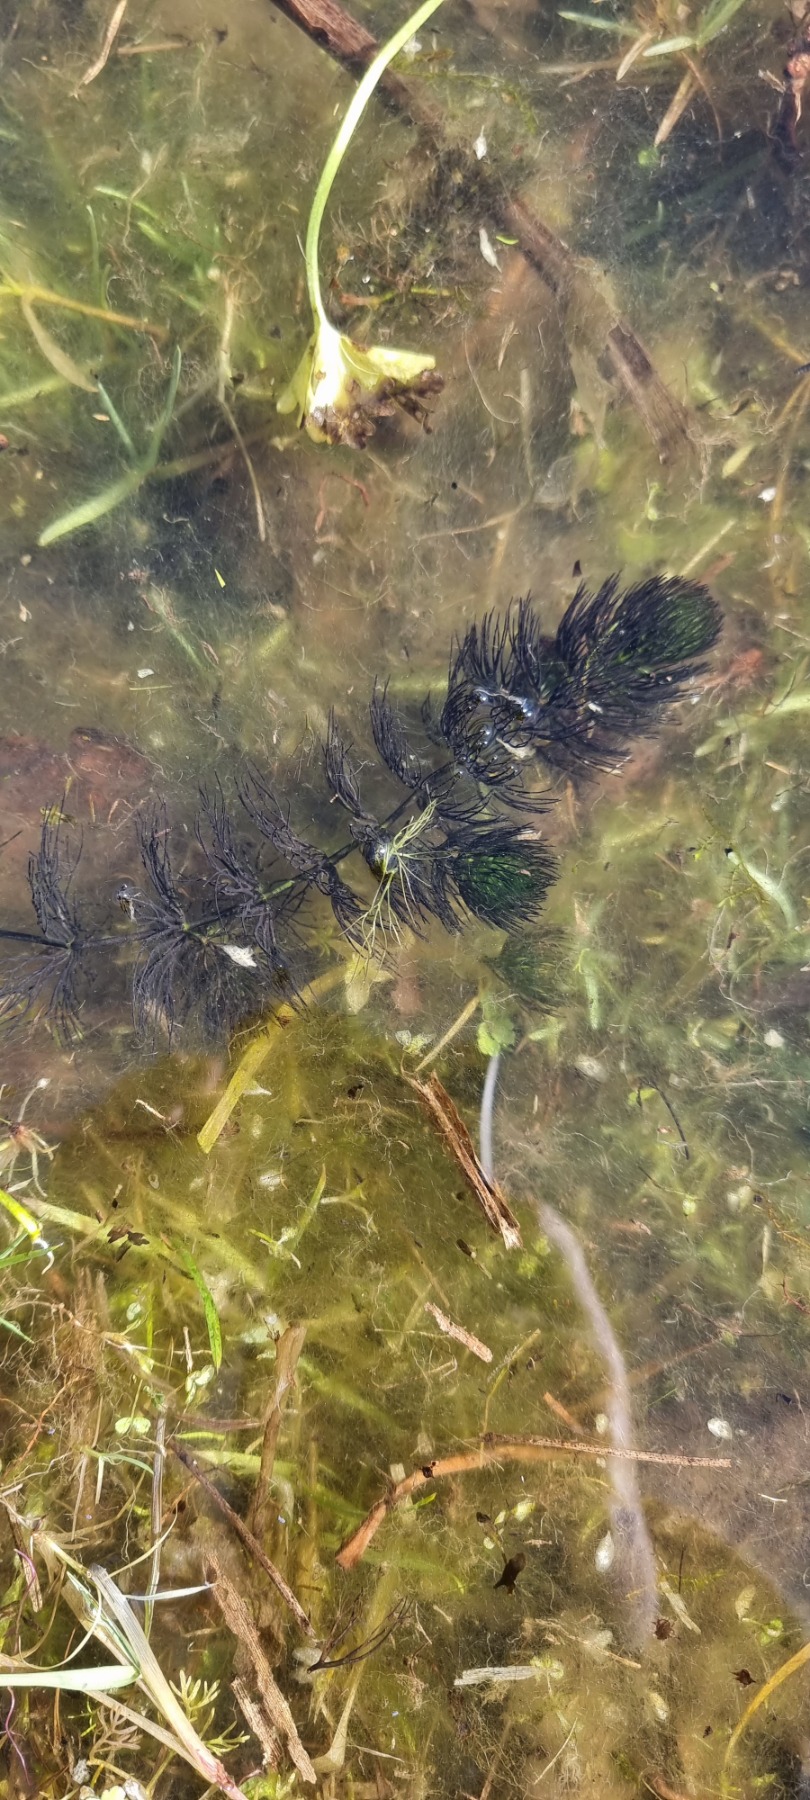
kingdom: Plantae
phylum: Tracheophyta
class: Magnoliopsida
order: Ceratophyllales
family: Ceratophyllaceae
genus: Ceratophyllum
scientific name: Ceratophyllum submersum
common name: Tornløs hornblad
